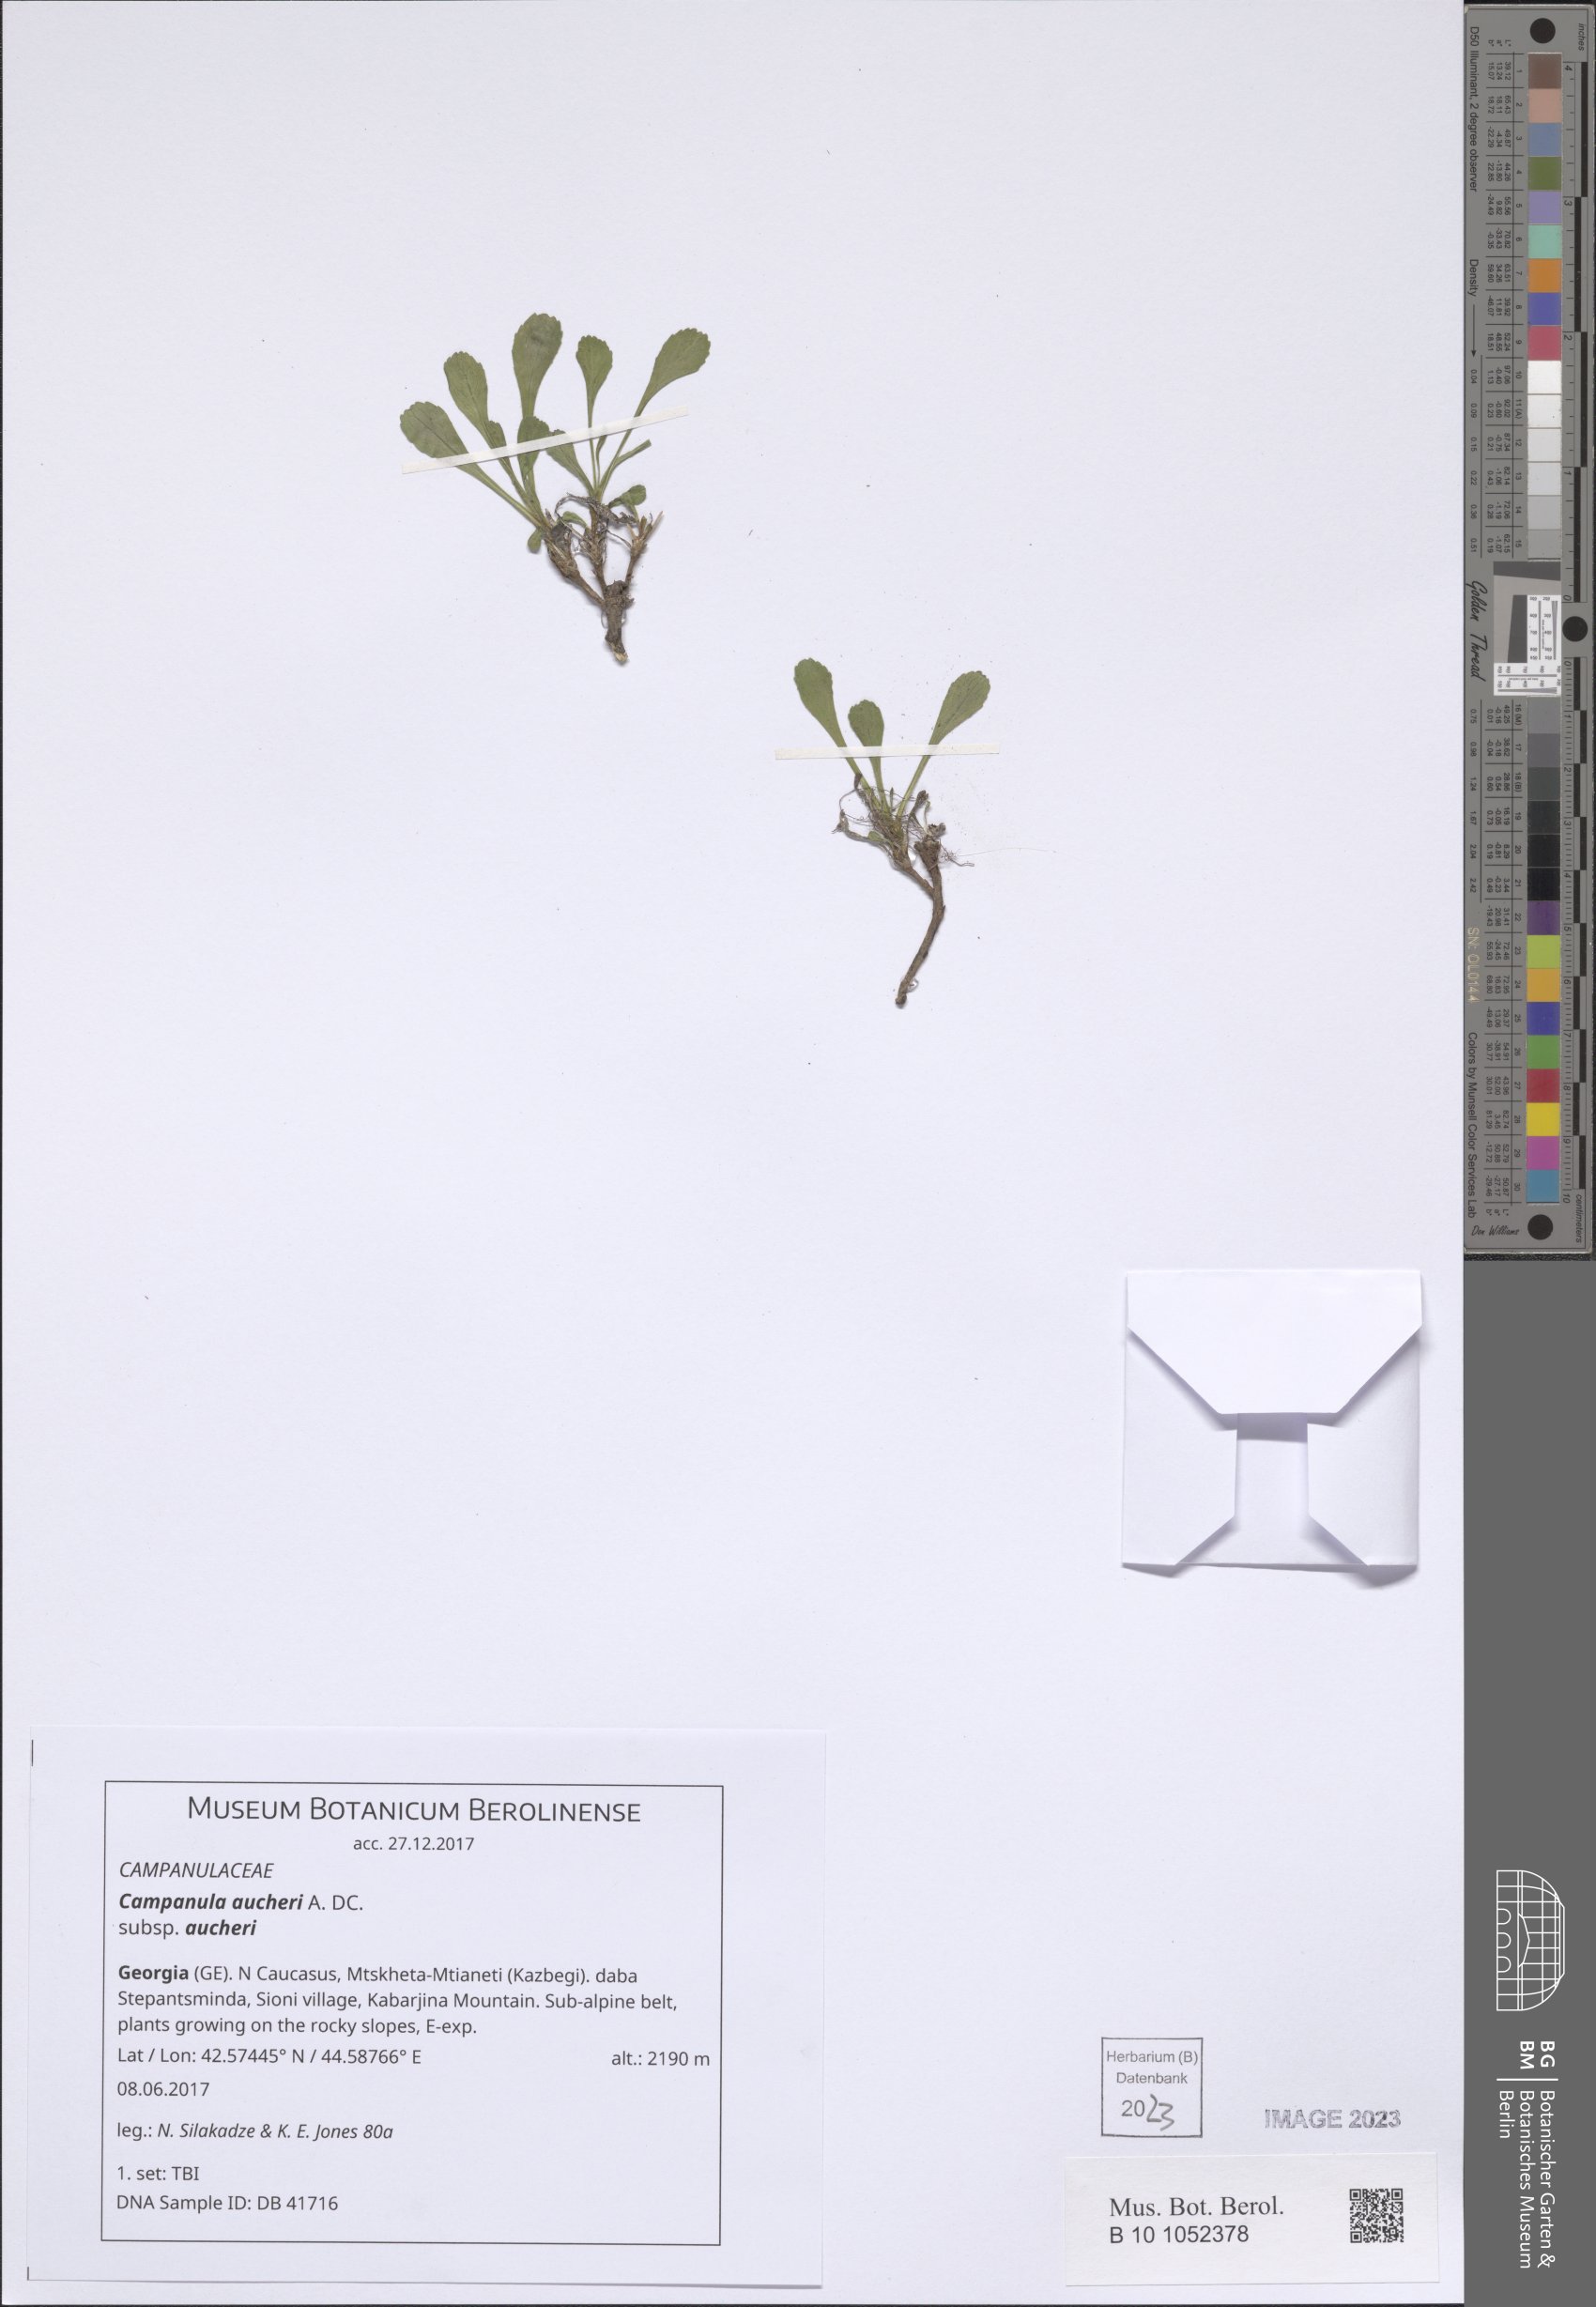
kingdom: Plantae
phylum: Tracheophyta
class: Magnoliopsida
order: Asterales
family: Campanulaceae
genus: Campanula
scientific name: Campanula saxifraga
